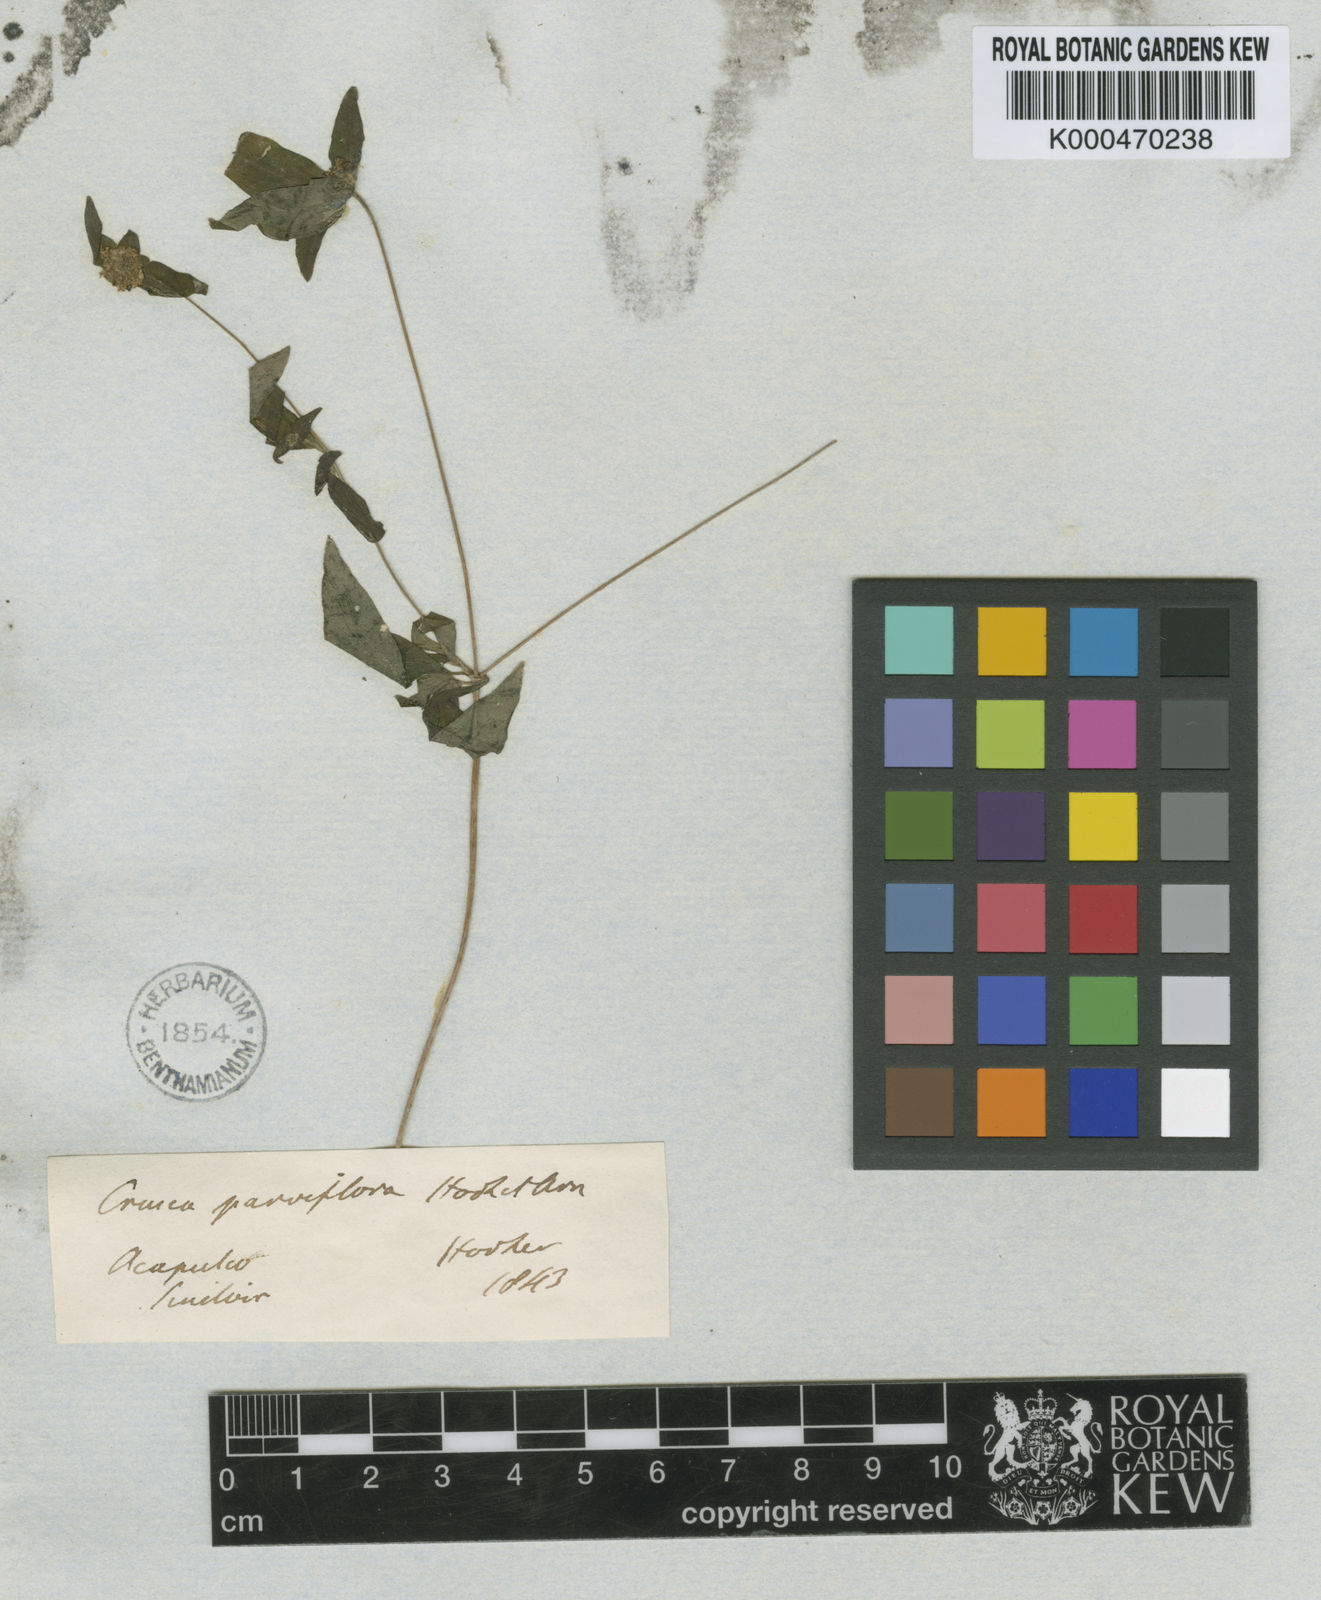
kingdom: Plantae
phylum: Tracheophyta
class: Magnoliopsida
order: Gentianales
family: Rubiaceae
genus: Crusea
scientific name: Crusea parviflora
